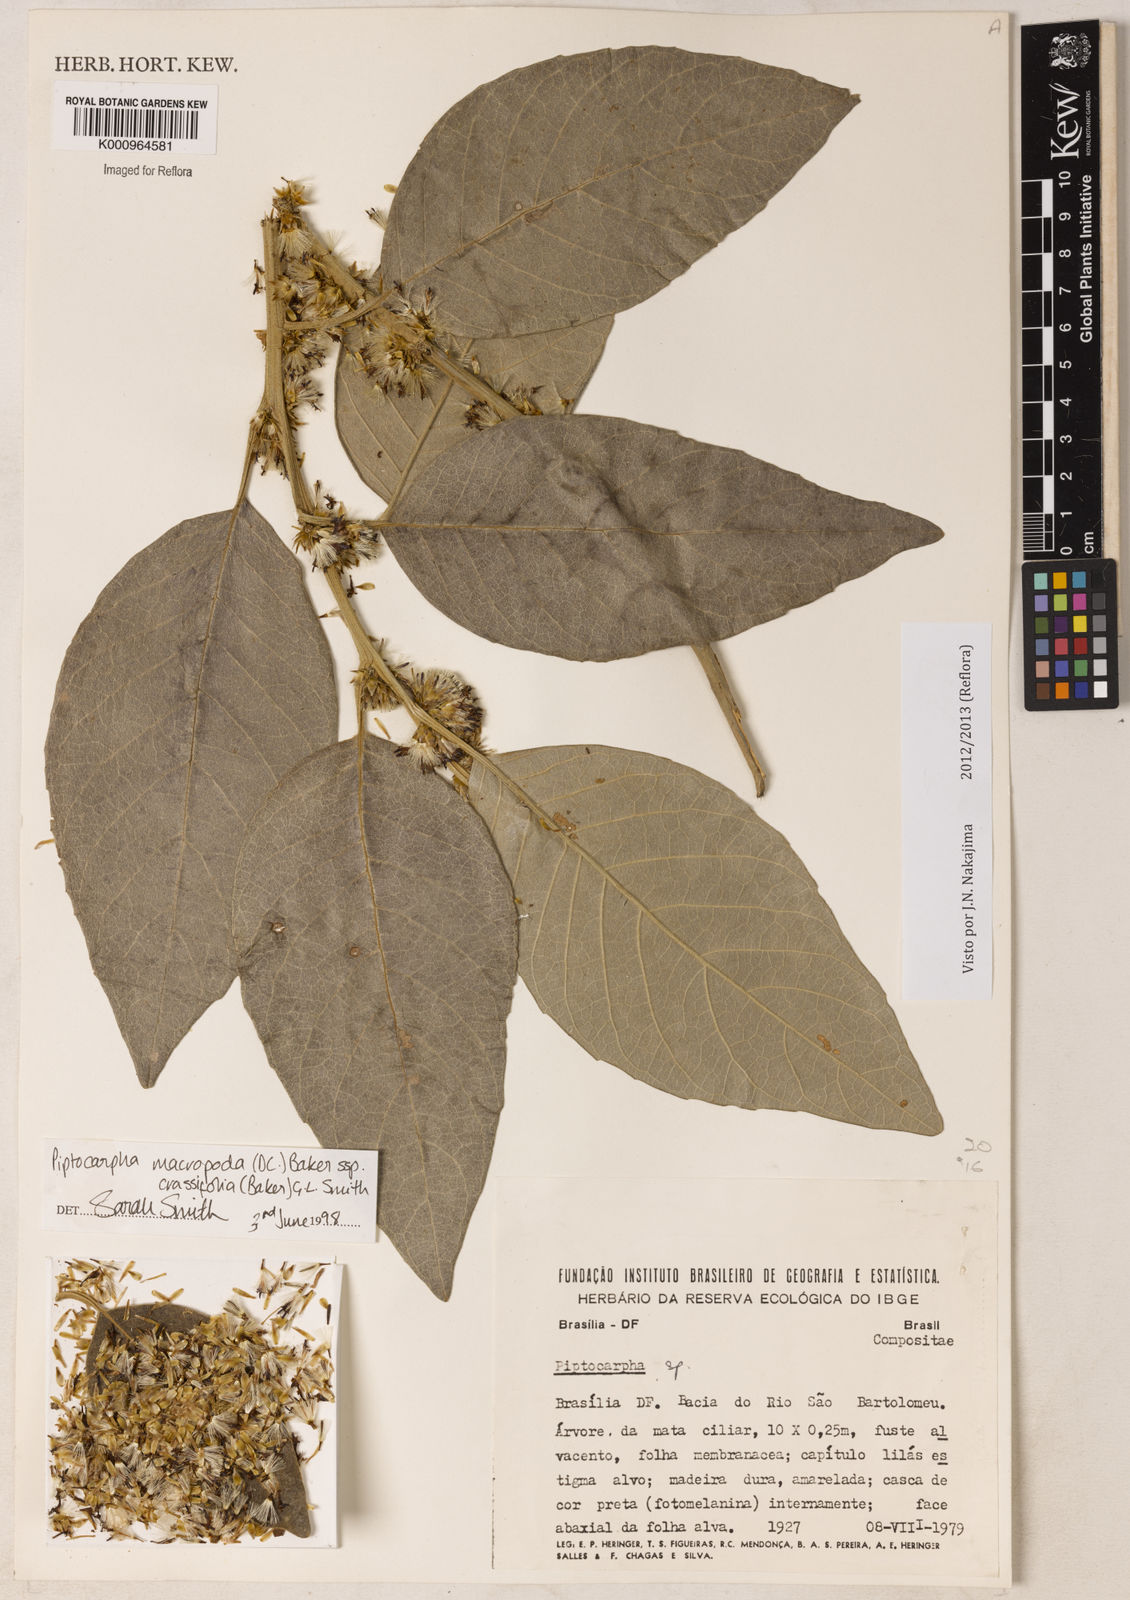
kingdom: Plantae
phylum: Tracheophyta
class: Magnoliopsida
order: Asterales
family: Asteraceae
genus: Piptocarpha
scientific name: Piptocarpha macropoda
